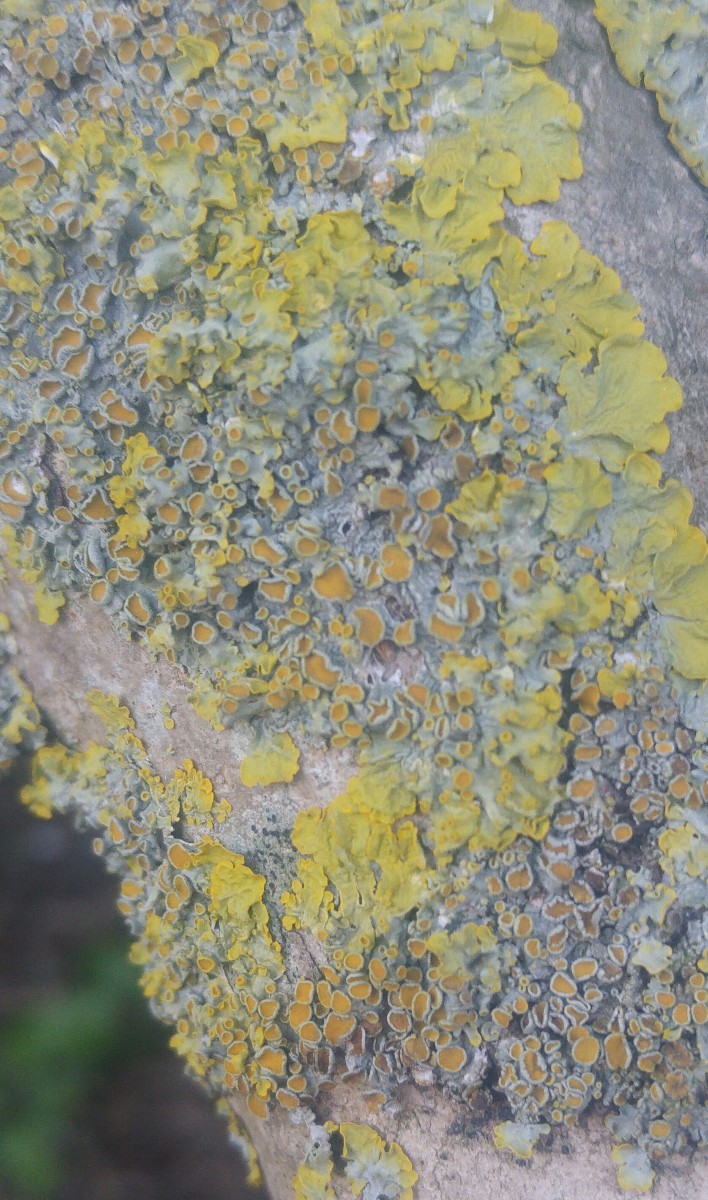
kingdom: Fungi
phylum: Ascomycota
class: Lecanoromycetes
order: Teloschistales
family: Teloschistaceae
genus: Xanthoria
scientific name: Xanthoria parietina
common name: almindelig væggelav
